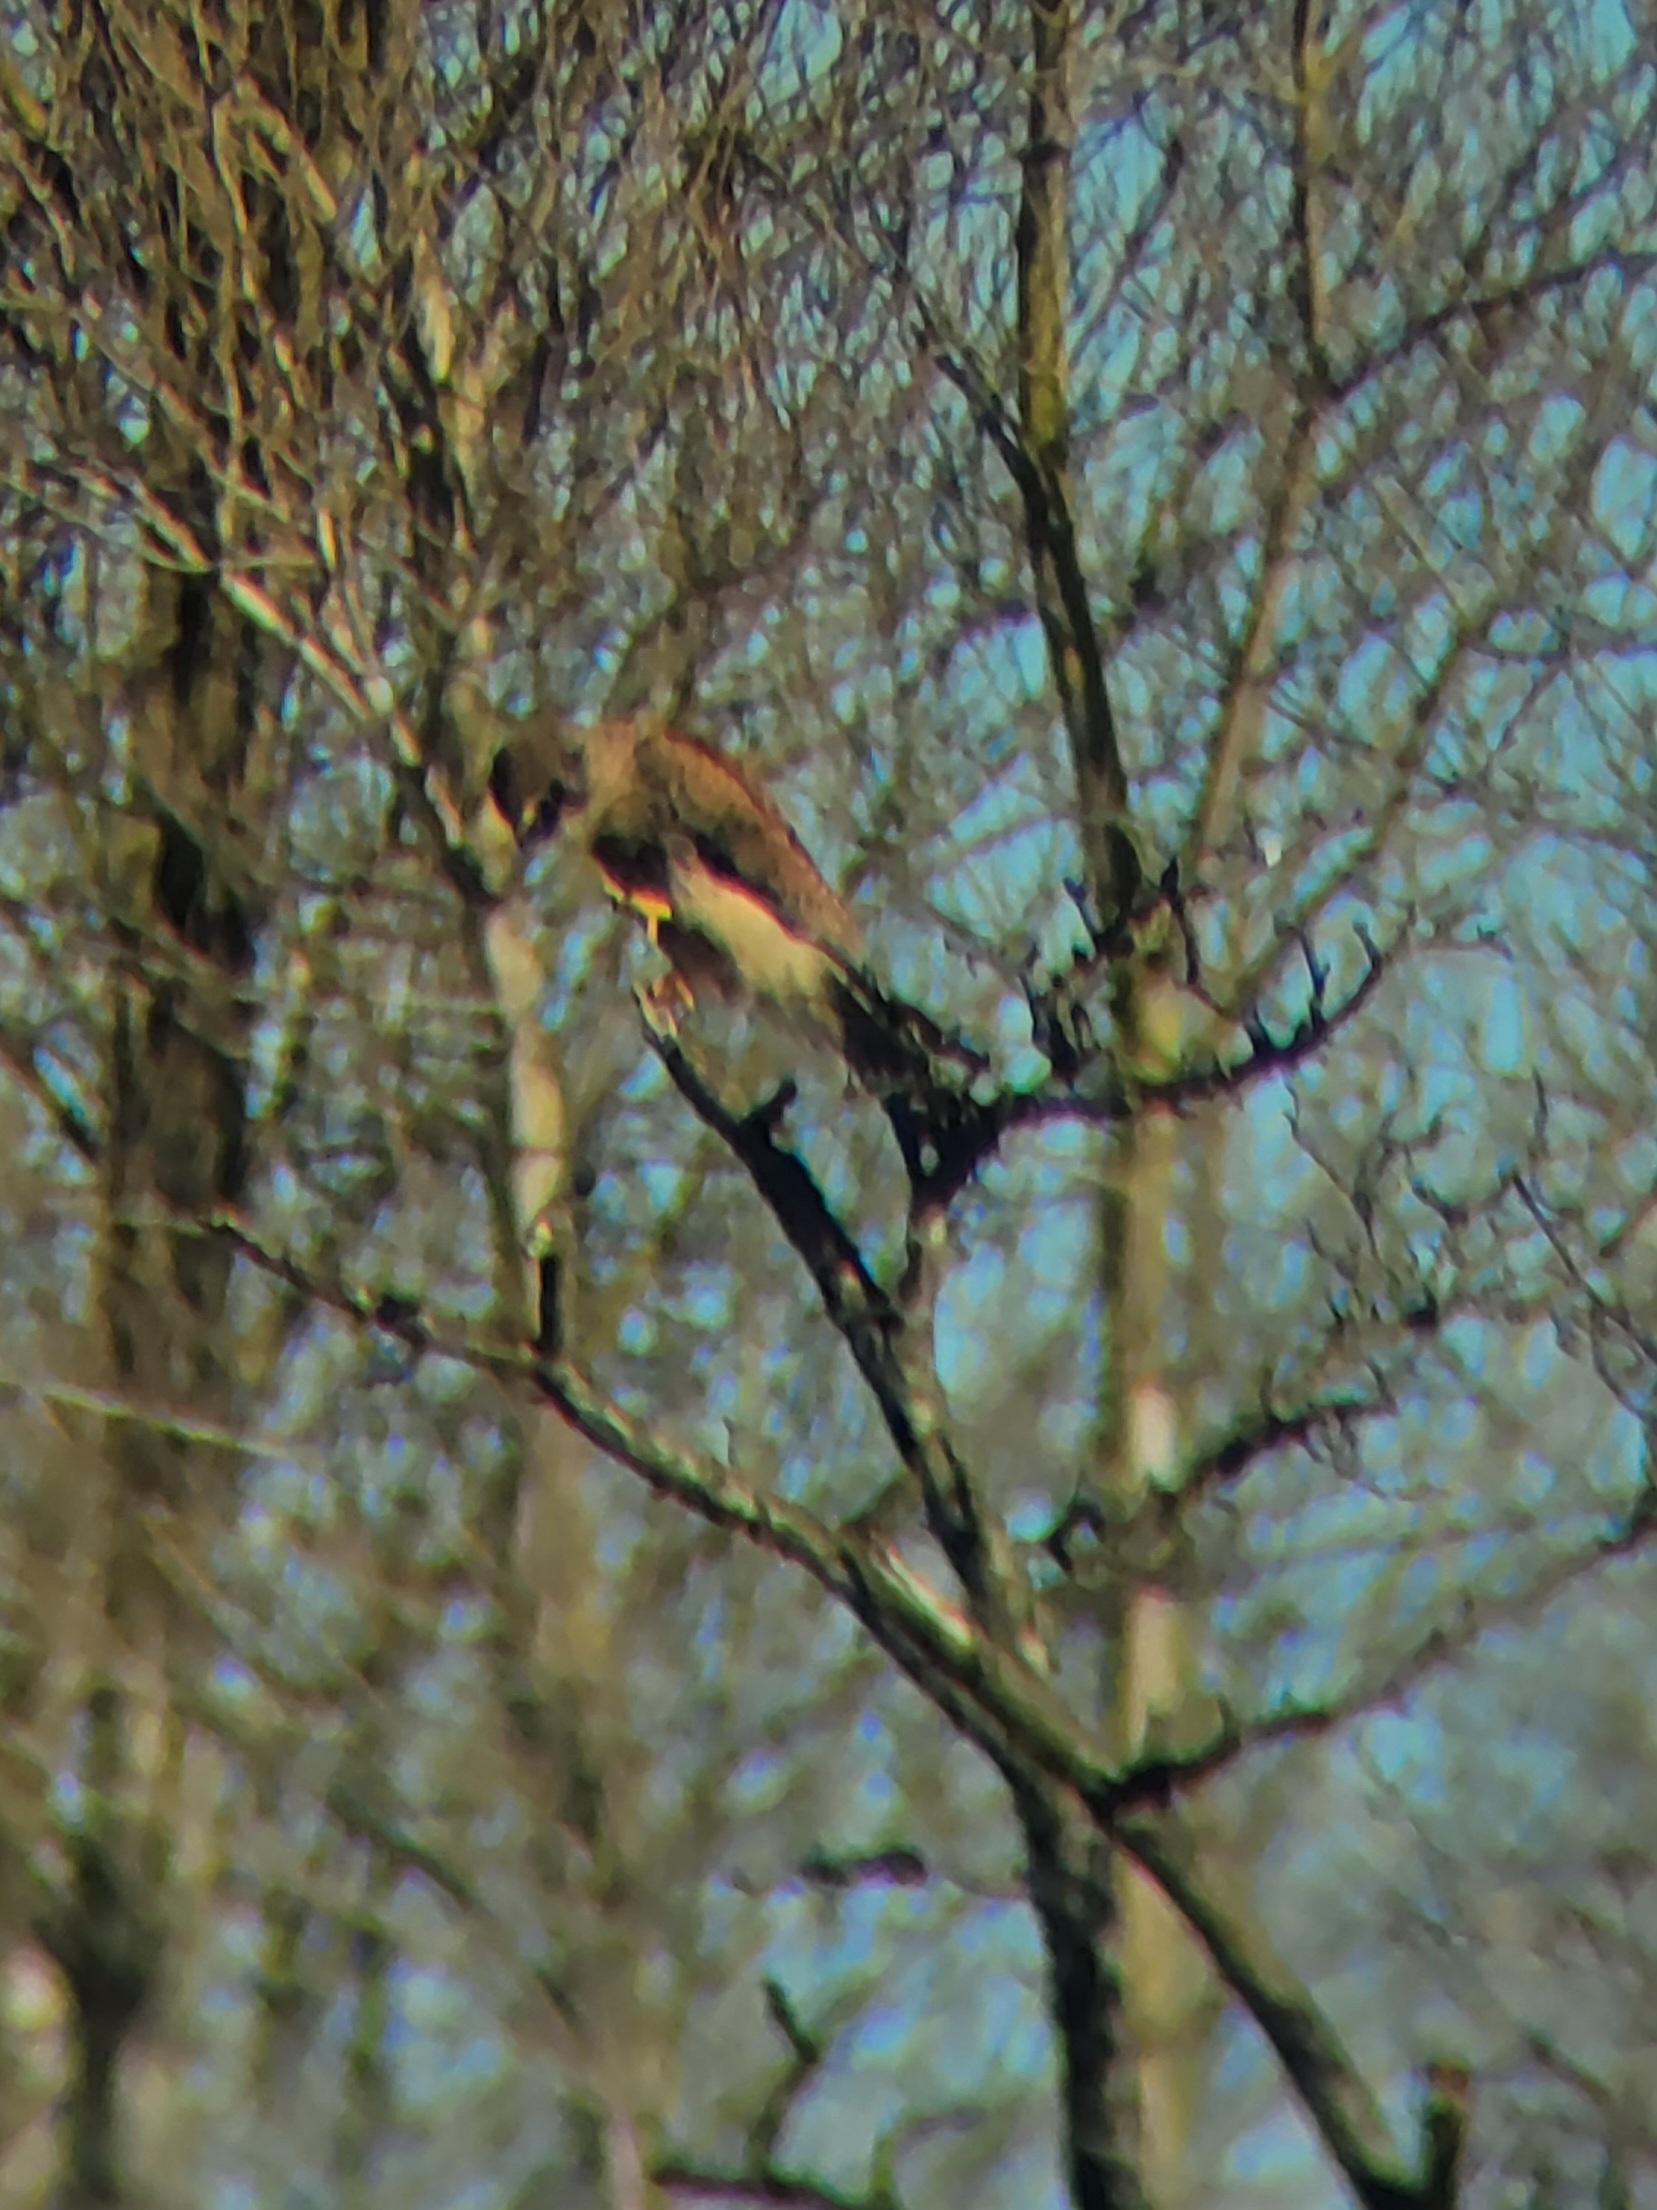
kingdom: Animalia
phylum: Chordata
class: Aves
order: Falconiformes
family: Falconidae
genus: Falco
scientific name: Falco tinnunculus
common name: Tårnfalk
